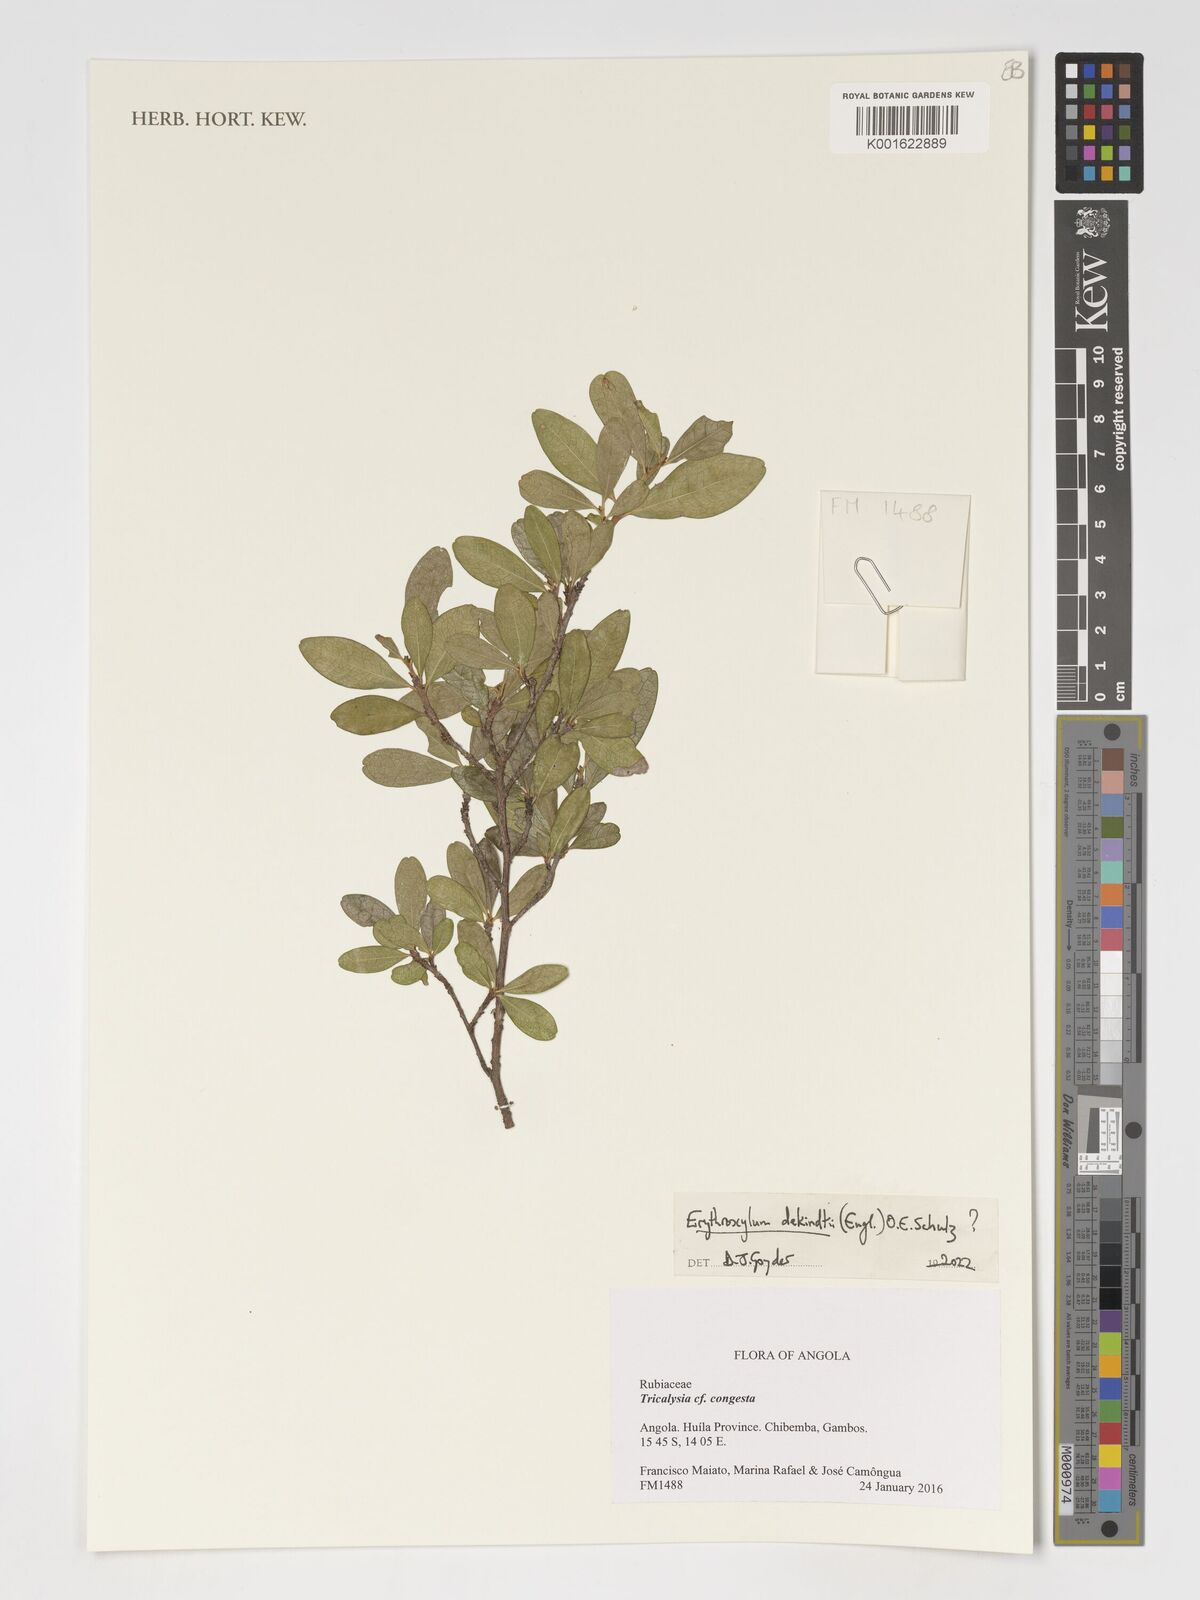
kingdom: Plantae
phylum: Tracheophyta
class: Magnoliopsida
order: Malpighiales
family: Erythroxylaceae
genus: Erythroxylum
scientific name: Erythroxylum dekindtii
